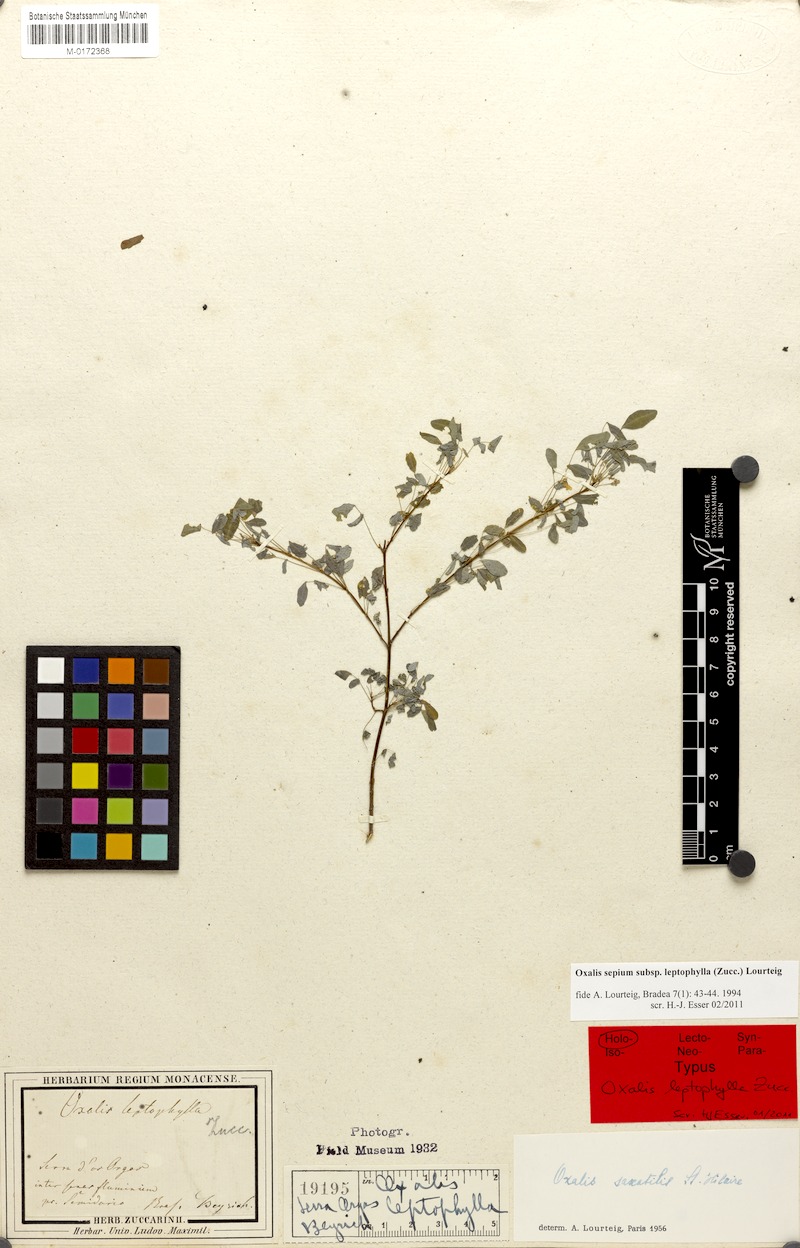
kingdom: Plantae
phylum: Tracheophyta
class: Magnoliopsida
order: Oxalidales
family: Oxalidaceae
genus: Oxalis
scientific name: Oxalis sepium
